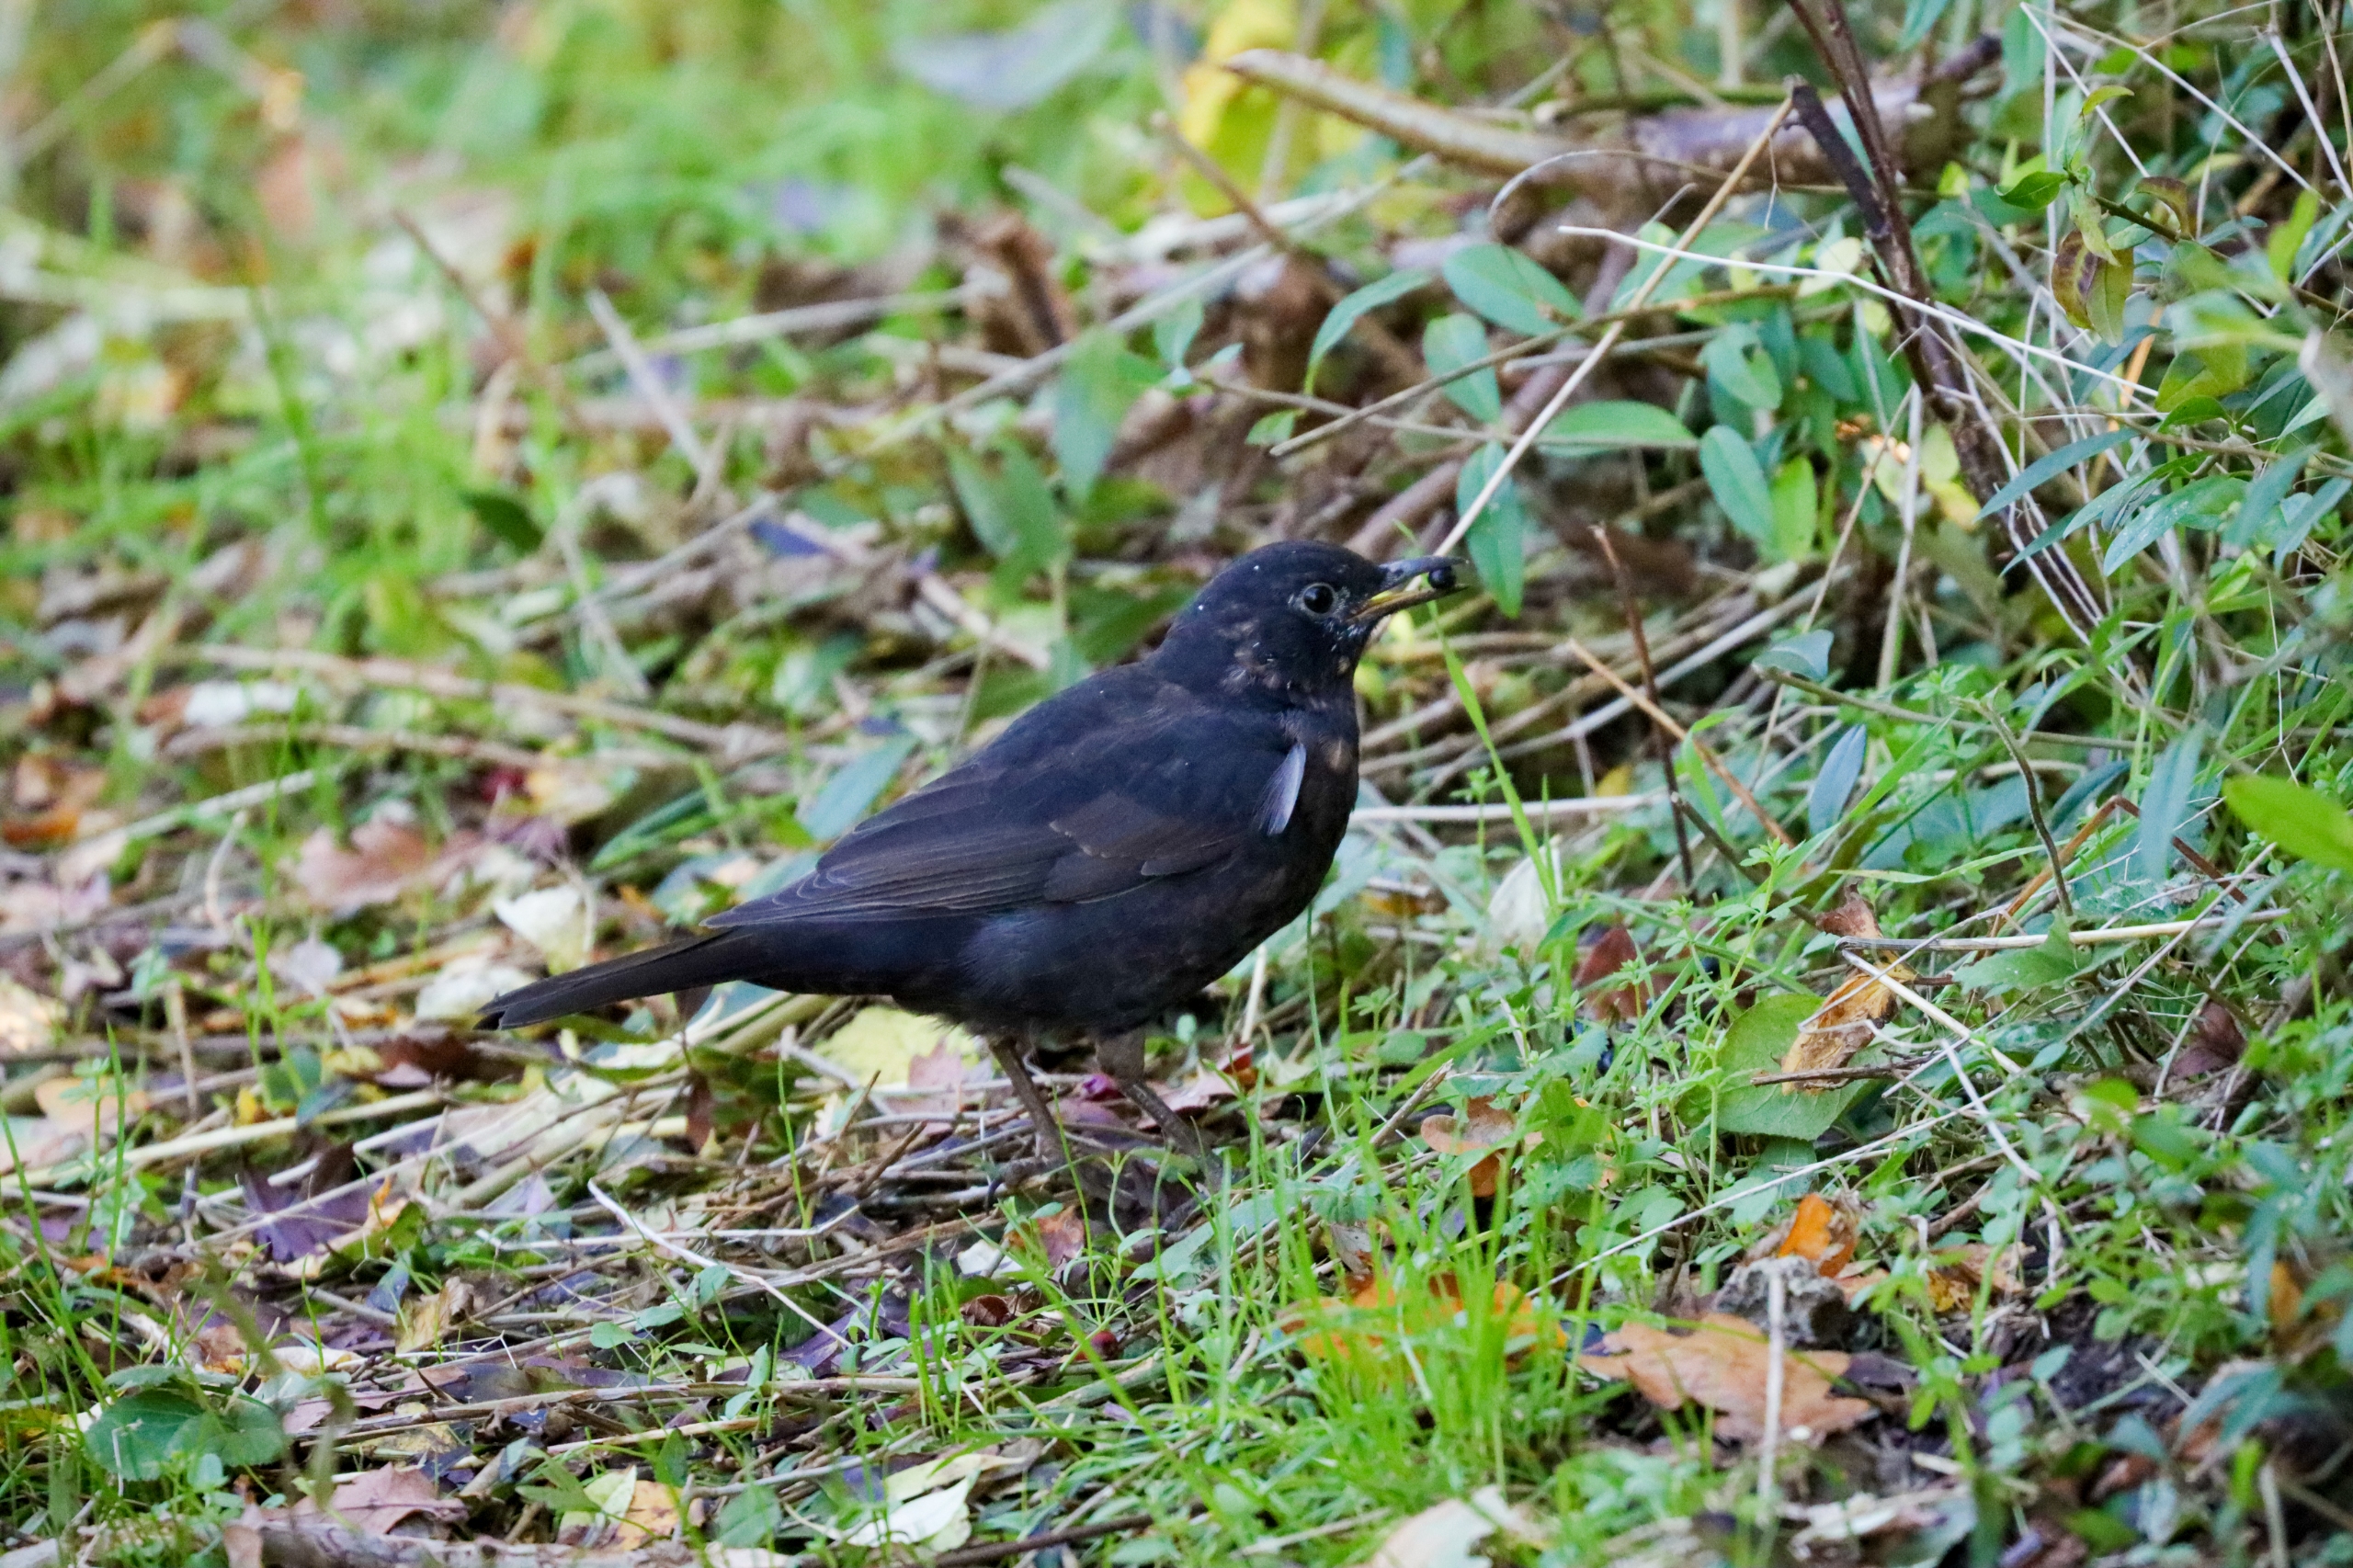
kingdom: Animalia
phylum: Chordata
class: Aves
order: Passeriformes
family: Turdidae
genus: Turdus
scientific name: Turdus merula
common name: Solsort
